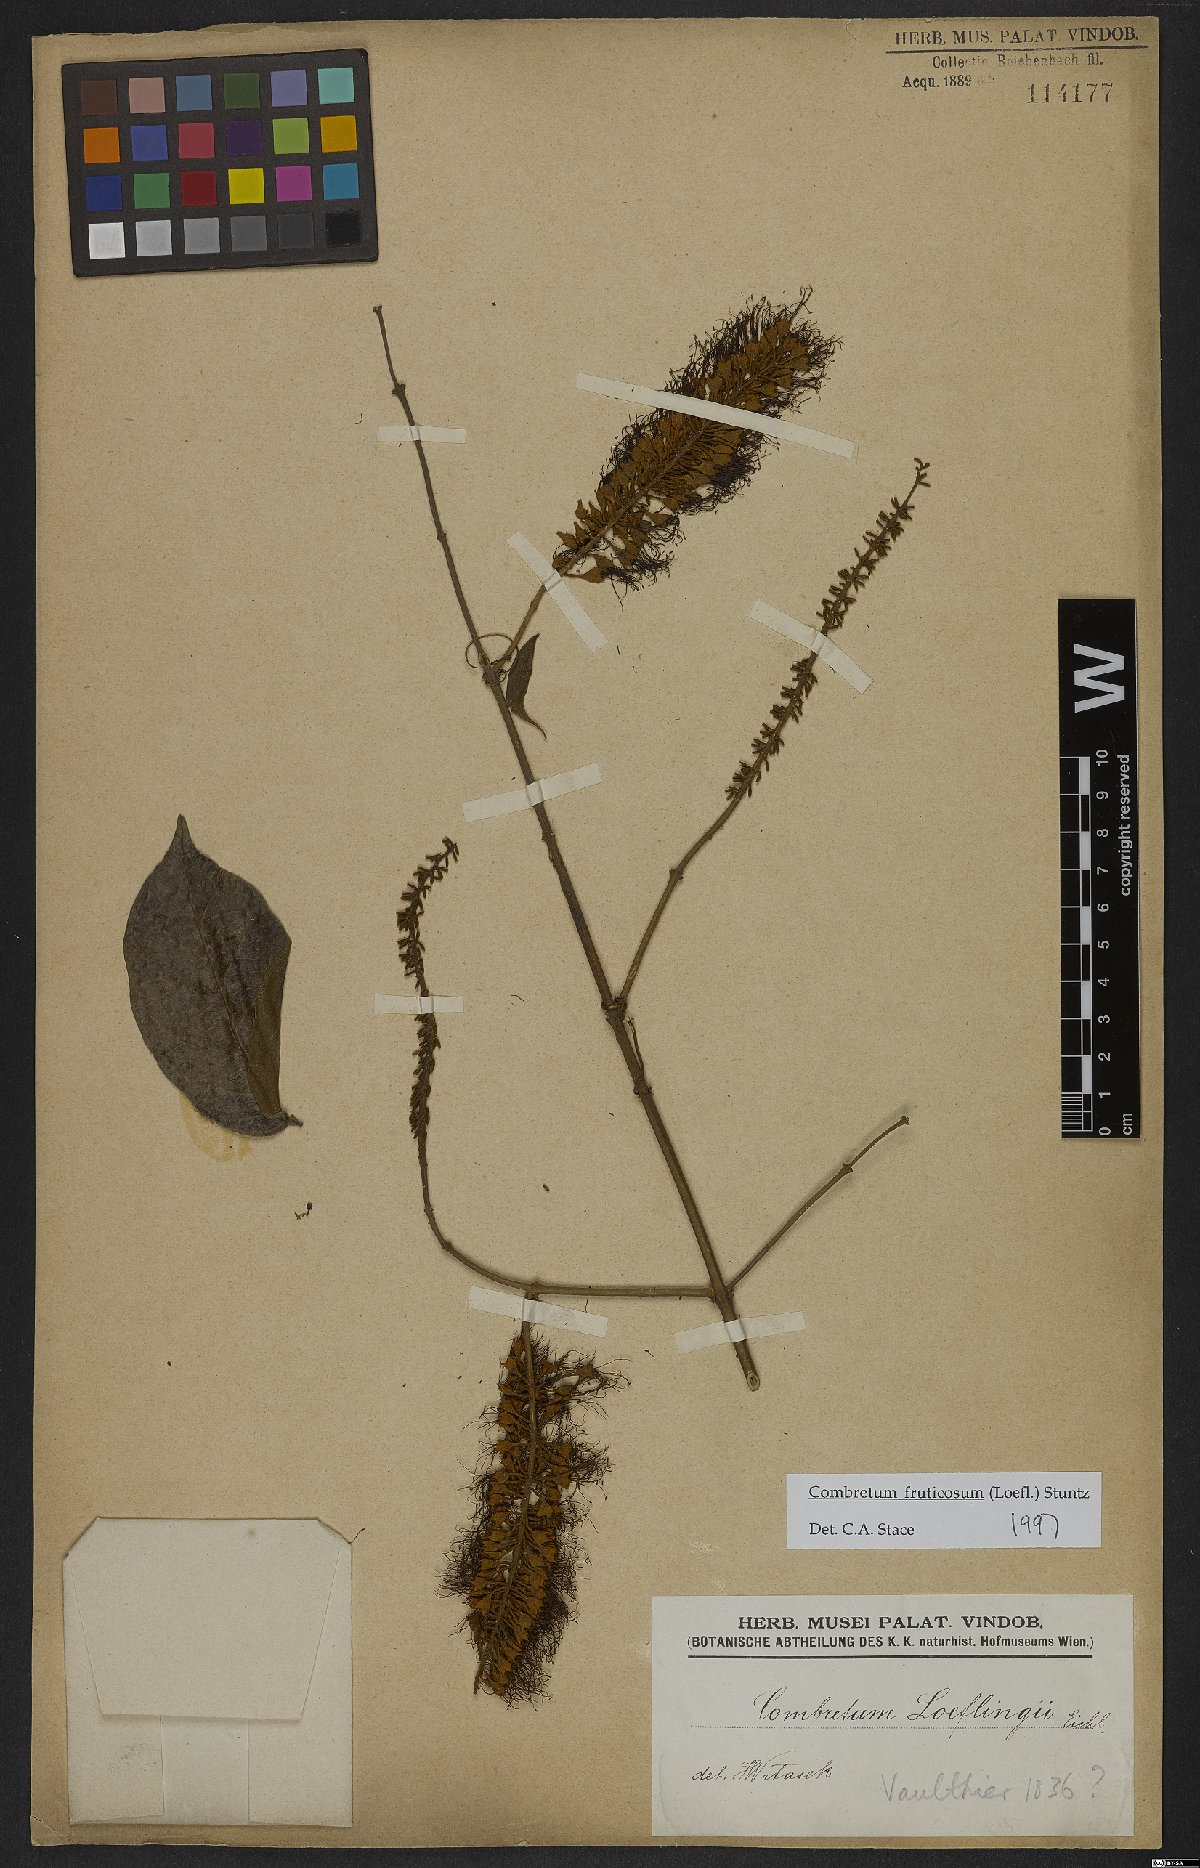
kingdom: Plantae
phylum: Tracheophyta
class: Magnoliopsida
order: Myrtales
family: Combretaceae
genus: Combretum
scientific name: Combretum fruticosum
